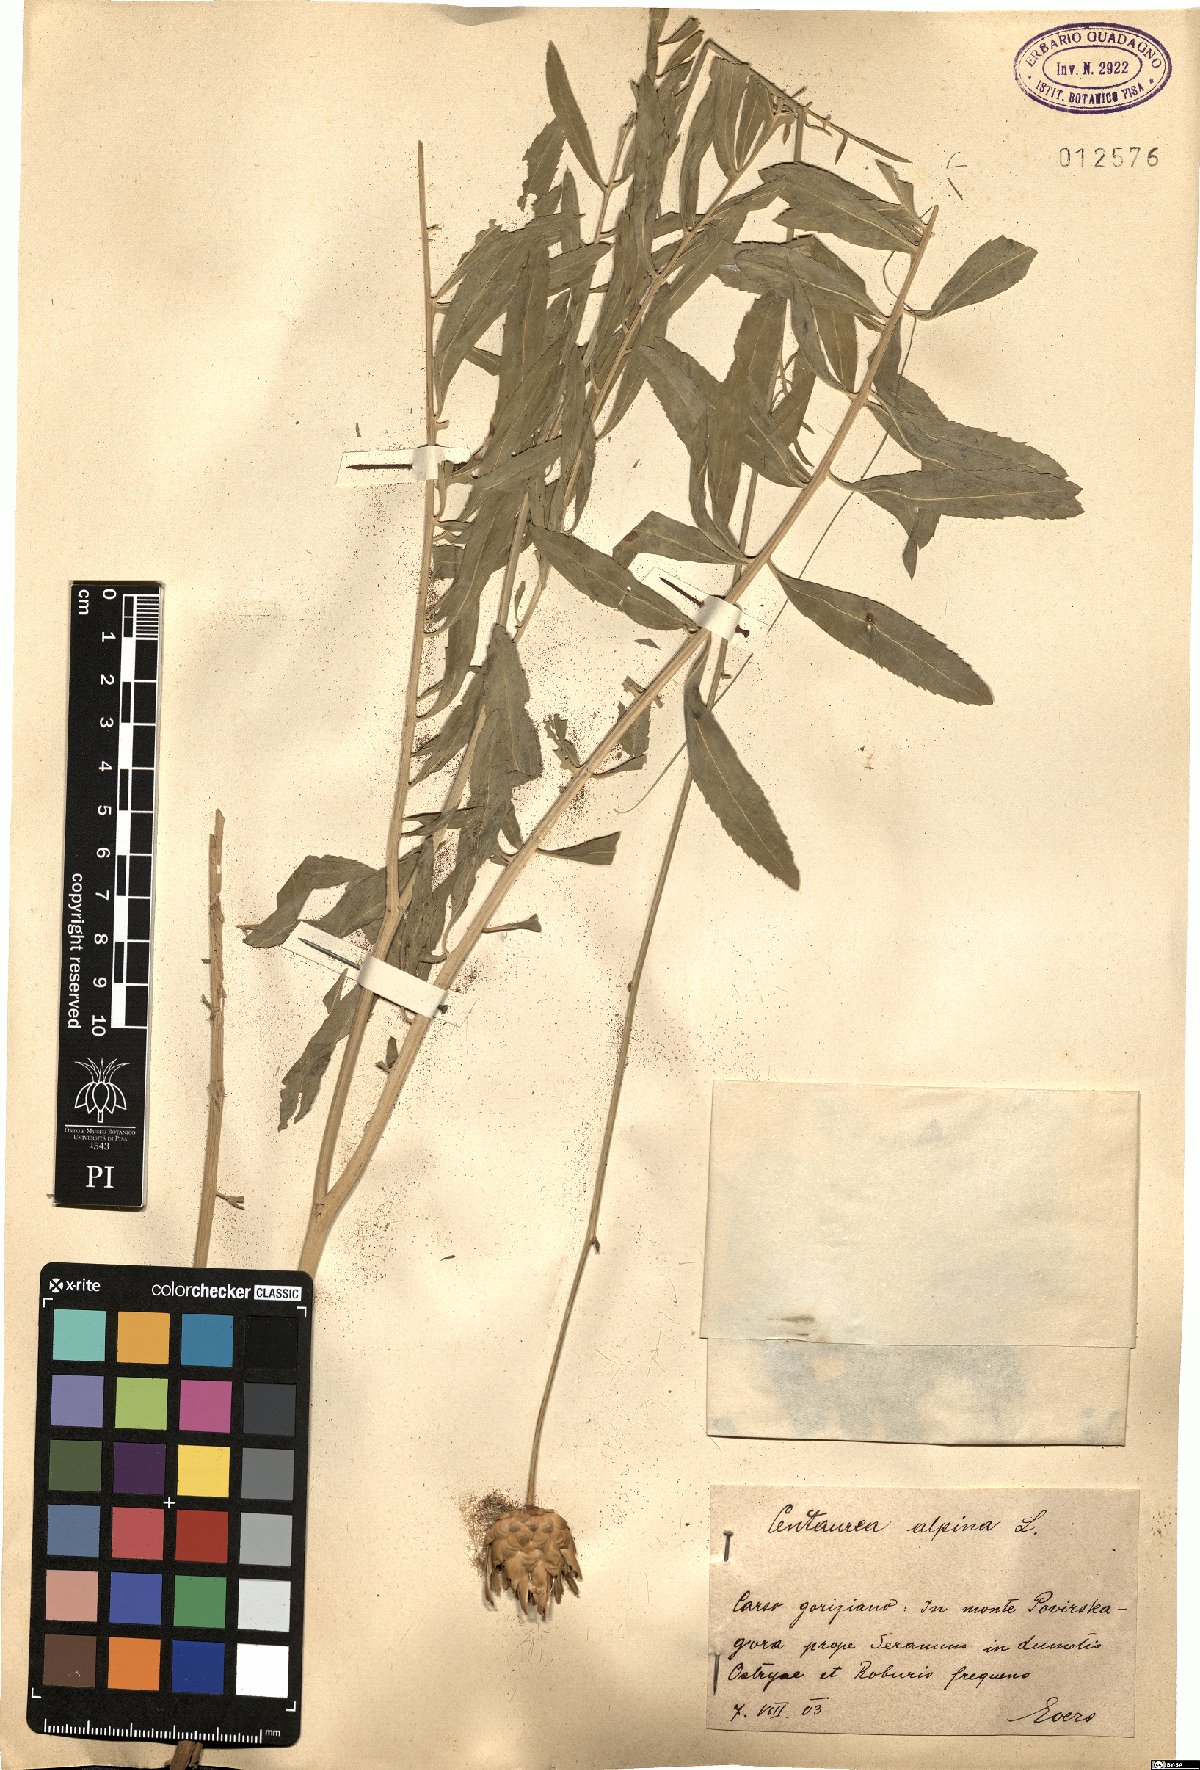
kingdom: Plantae
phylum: Tracheophyta
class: Magnoliopsida
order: Asterales
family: Asteraceae
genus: Rhaponticoides
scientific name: Rhaponticoides alpina
